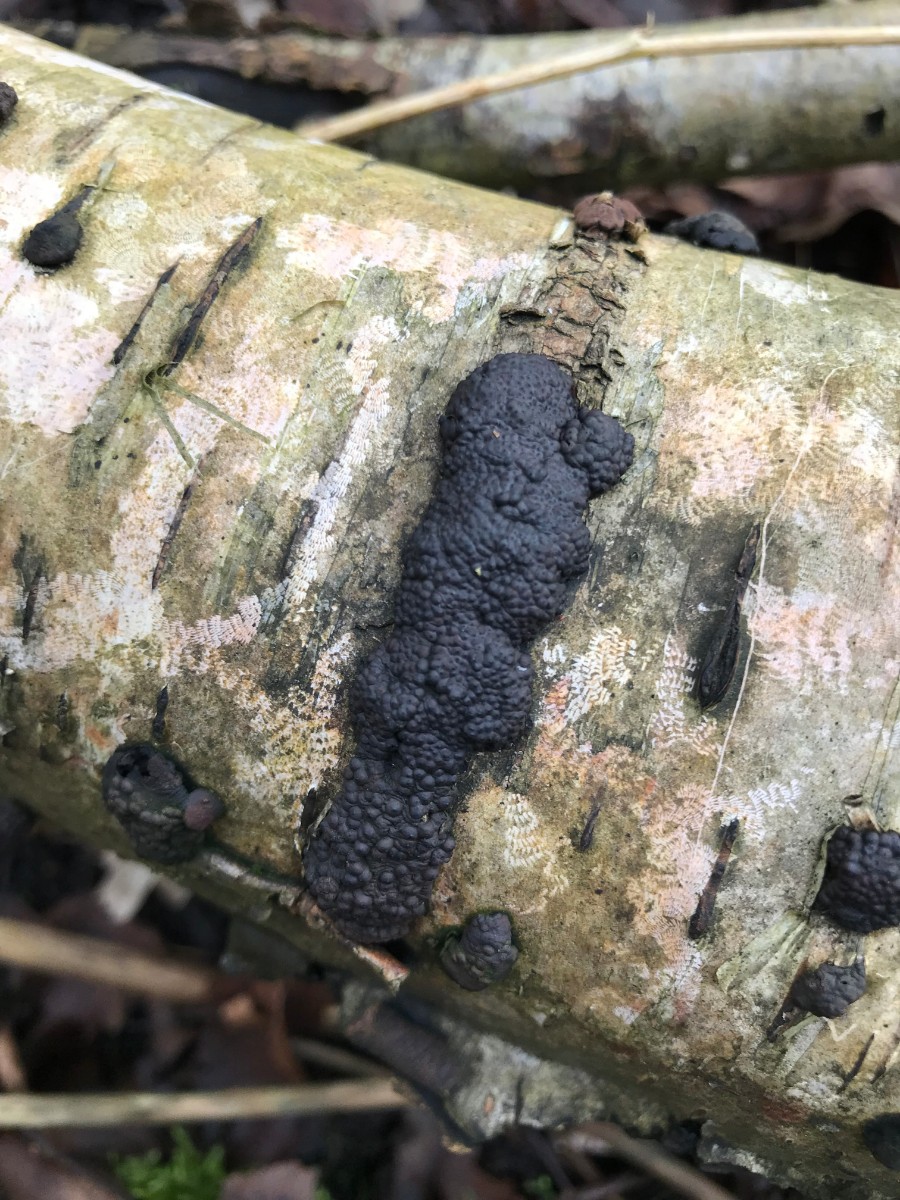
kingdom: Fungi
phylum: Ascomycota
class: Sordariomycetes
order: Xylariales
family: Hypoxylaceae
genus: Jackrogersella
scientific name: Jackrogersella multiformis
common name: foranderlig kulbær
